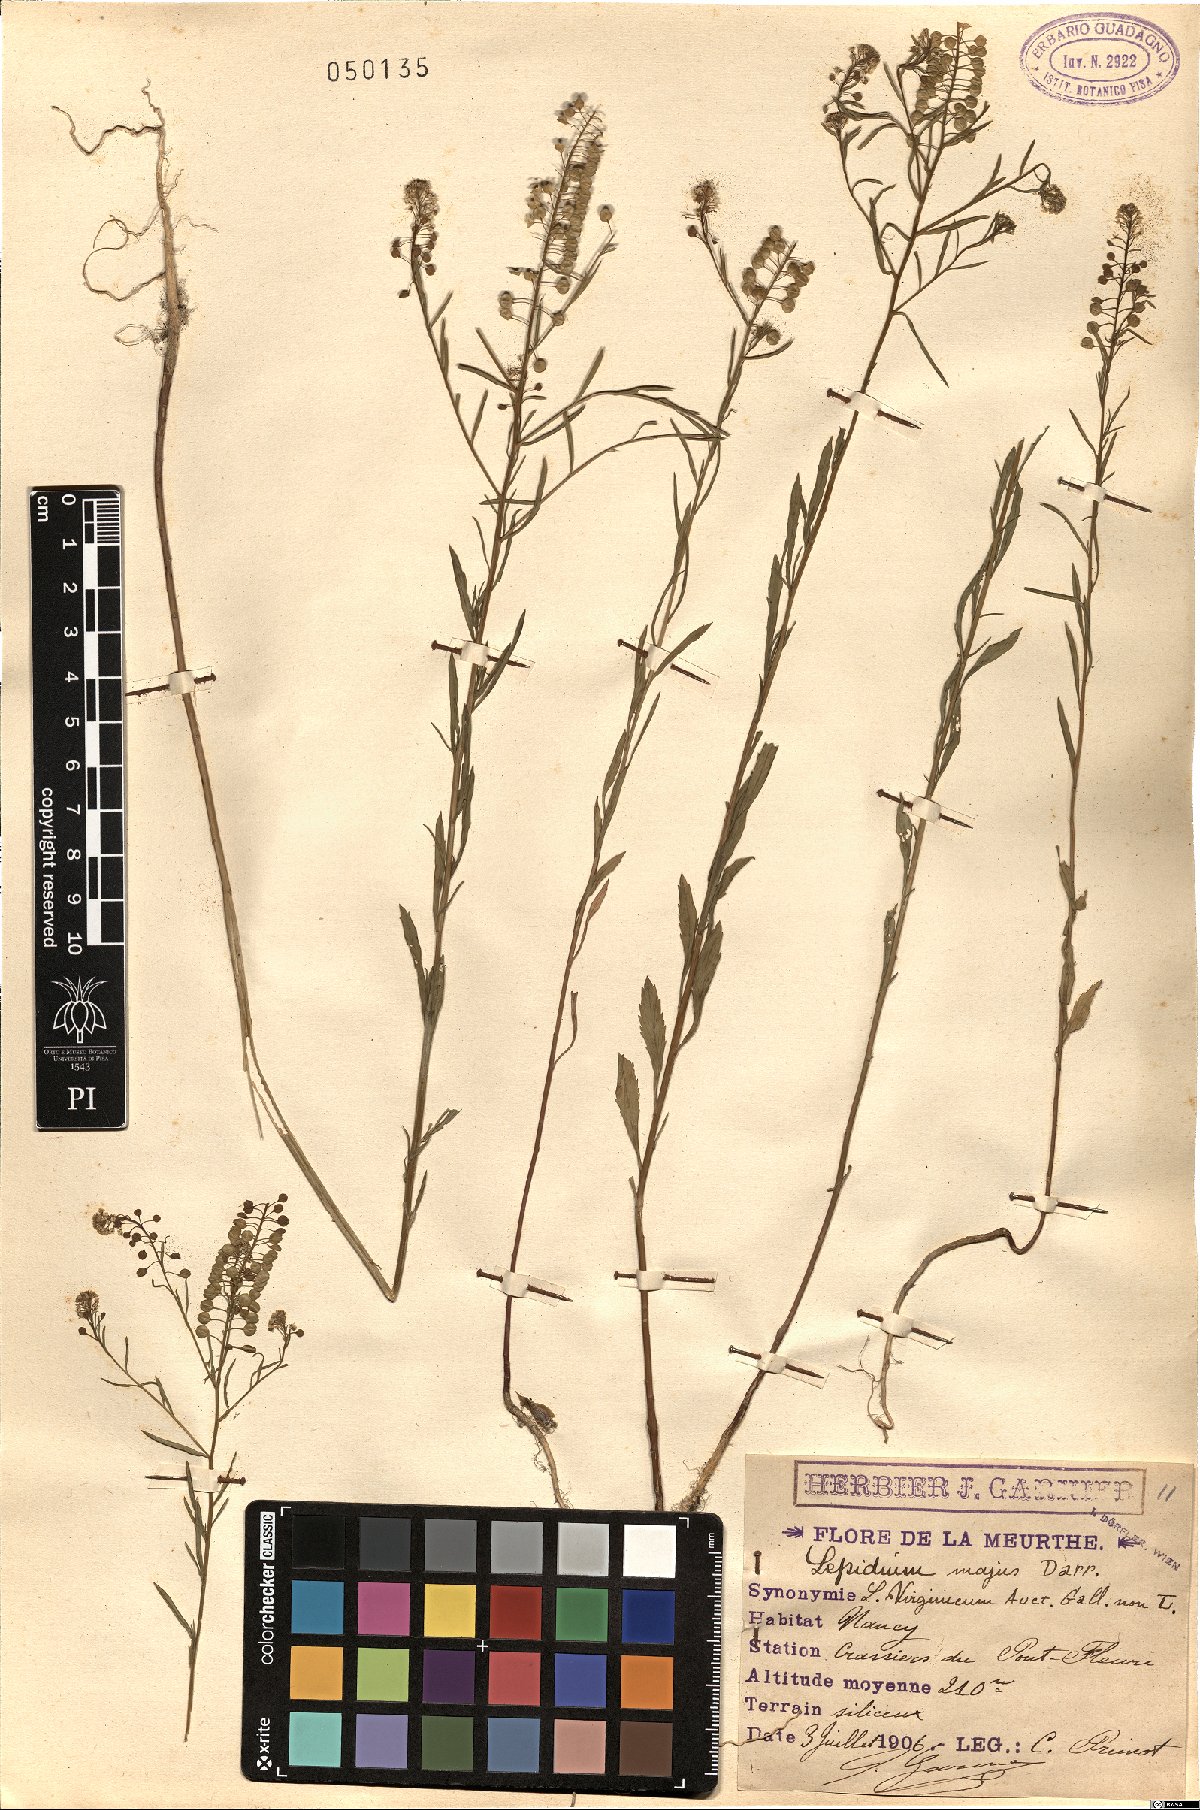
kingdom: Plantae
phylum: Tracheophyta
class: Magnoliopsida
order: Brassicales
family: Brassicaceae
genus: Lepidium
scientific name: Lepidium virginicum
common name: Least pepperwort
